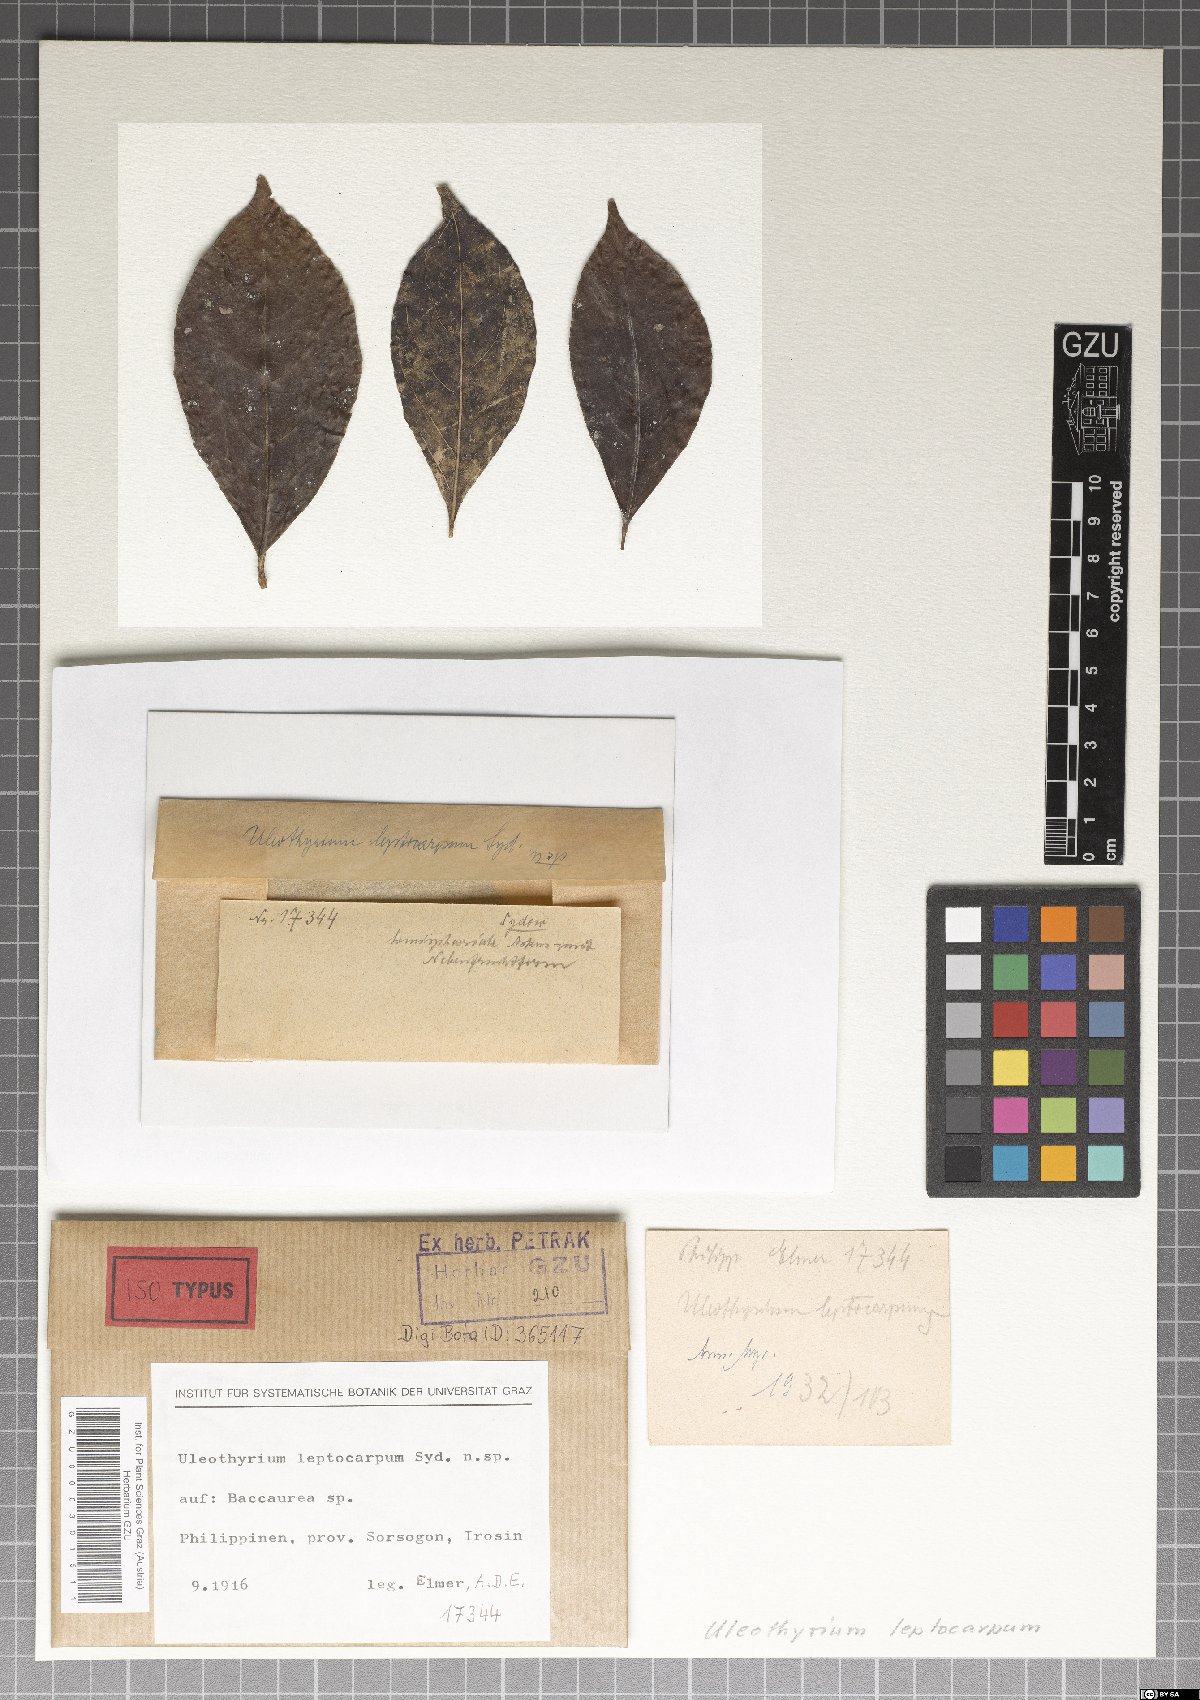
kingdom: Fungi
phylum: Ascomycota
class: Dothideomycetes
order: Asterinales
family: Asterinaceae
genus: Uleothyrium
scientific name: Uleothyrium leptocarpum
